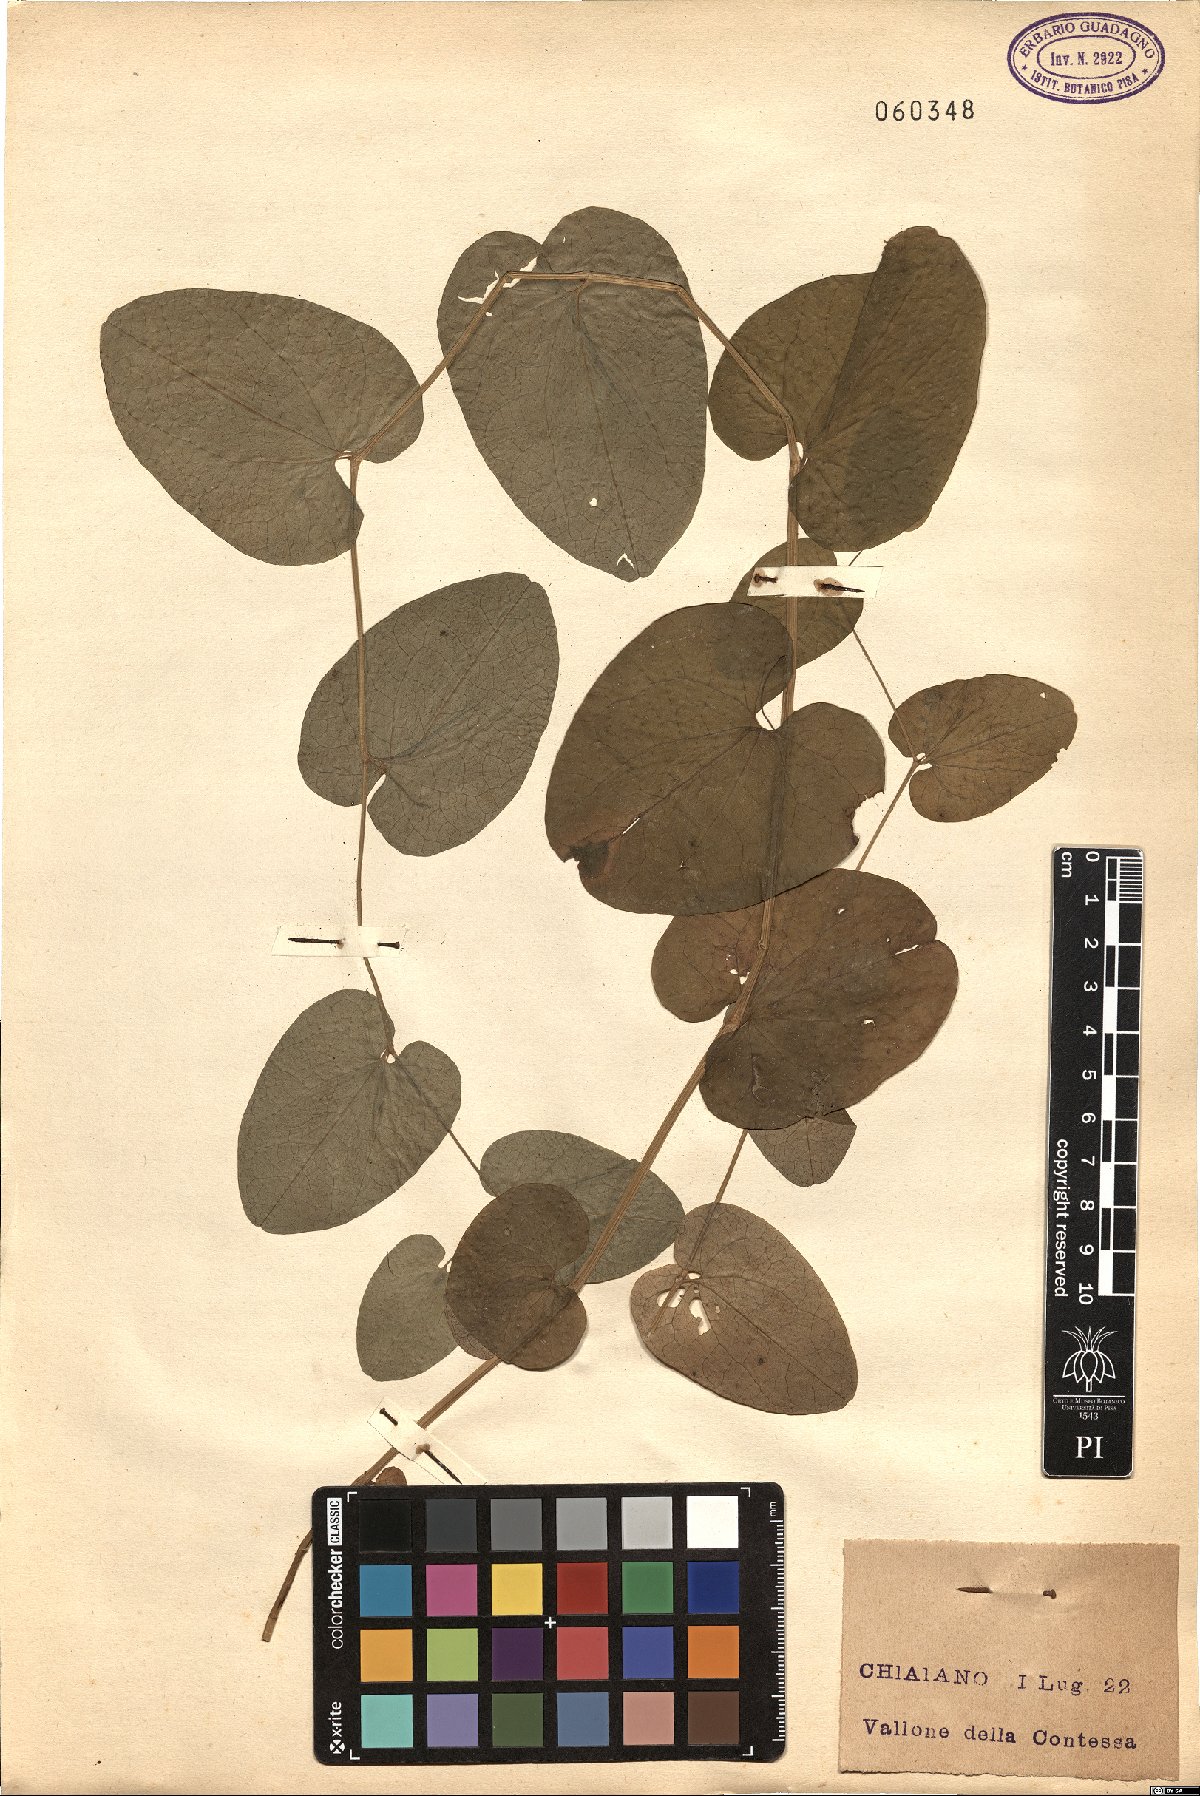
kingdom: Plantae
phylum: Tracheophyta
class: Magnoliopsida
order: Piperales
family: Aristolochiaceae
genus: Aristolochia
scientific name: Aristolochia
